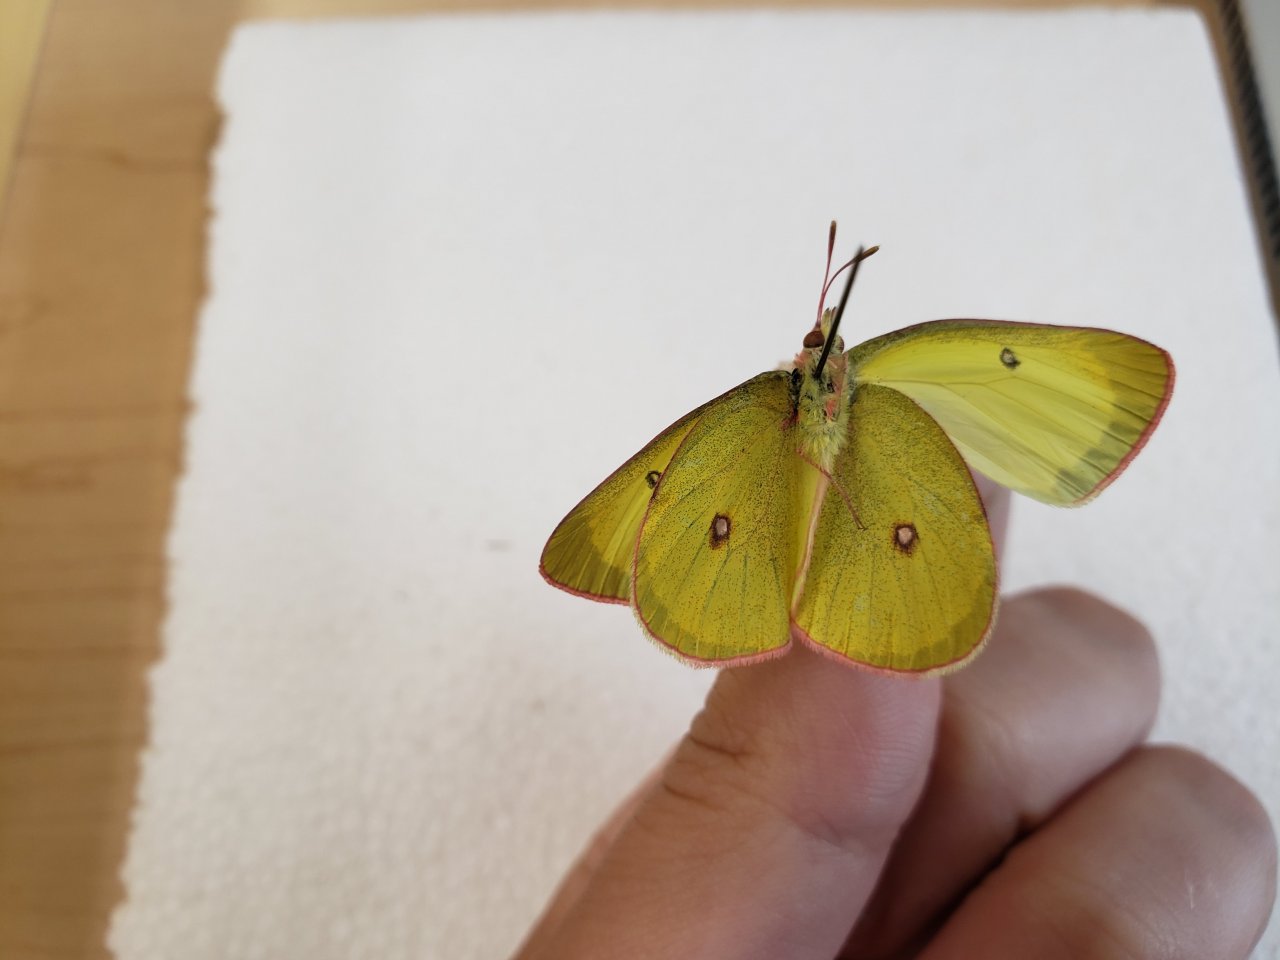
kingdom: Animalia
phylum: Arthropoda
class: Insecta
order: Lepidoptera
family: Pieridae
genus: Colias
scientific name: Colias interior
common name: Pink-edged Sulphur
